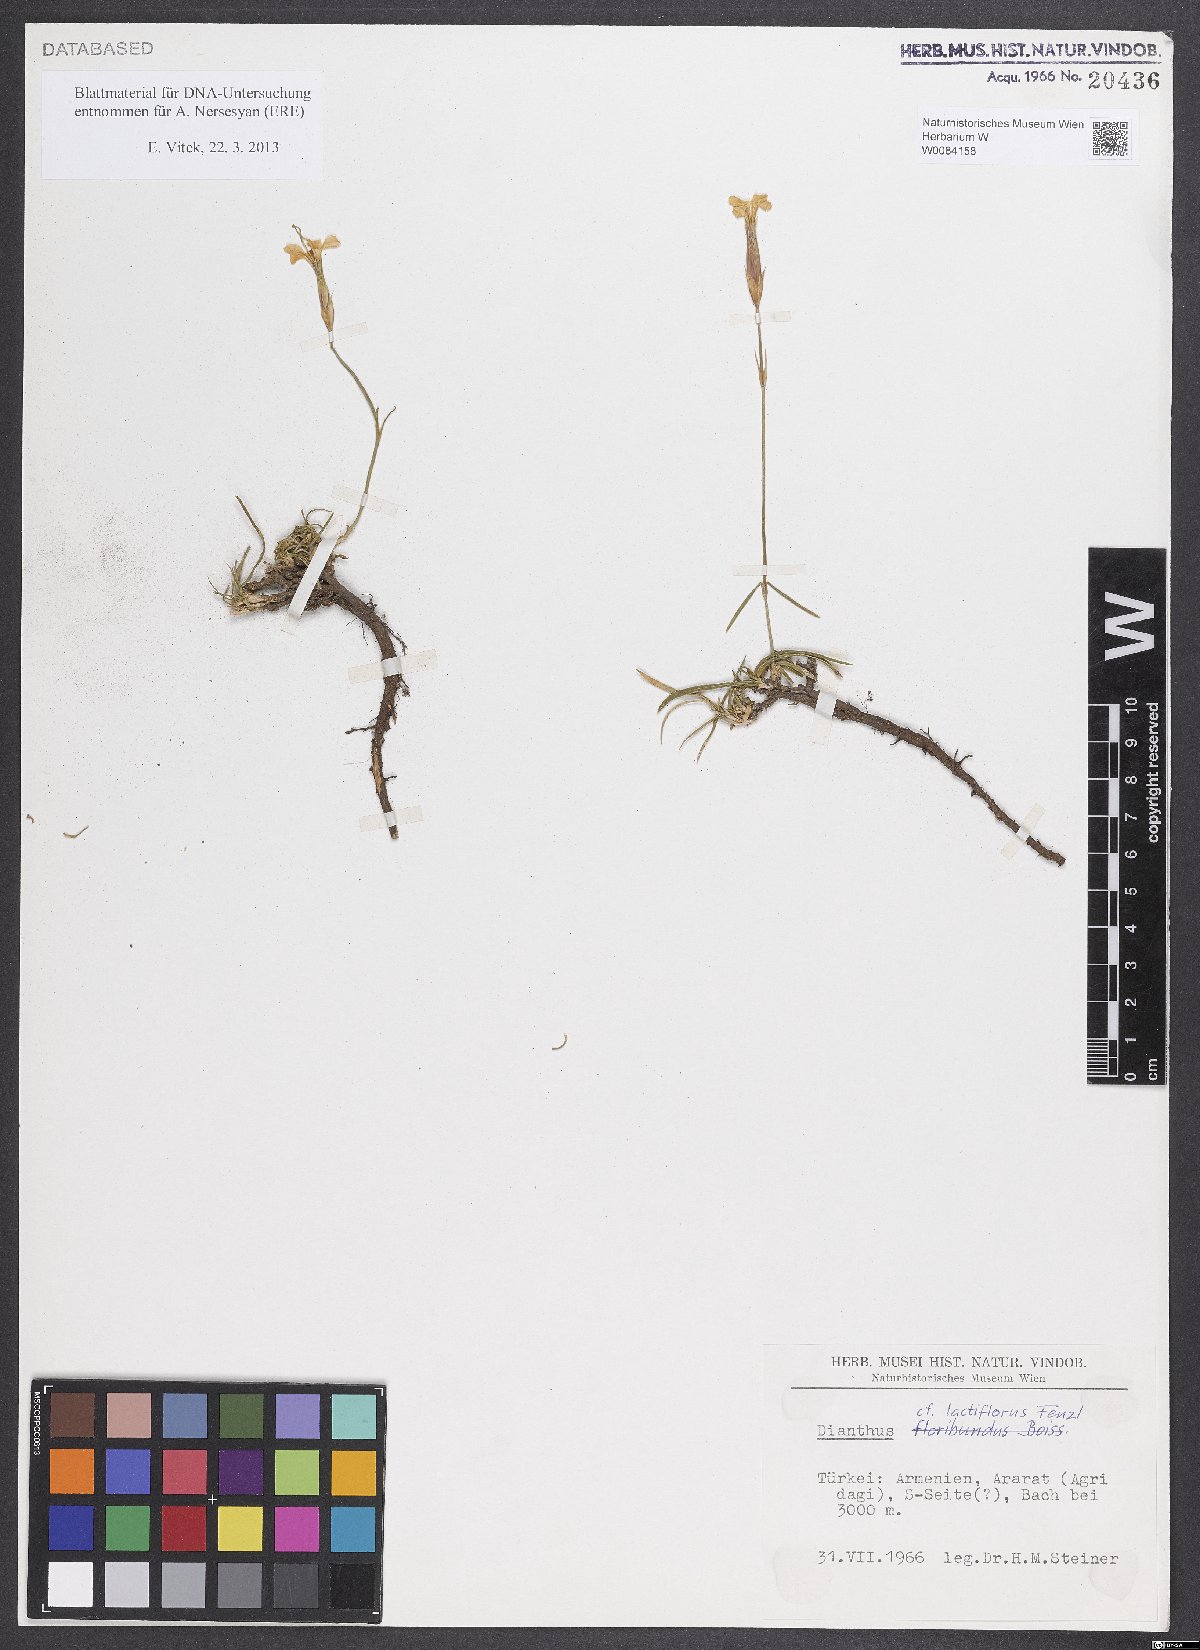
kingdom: Plantae
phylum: Tracheophyta
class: Magnoliopsida
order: Caryophyllales
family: Caryophyllaceae
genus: Dianthus
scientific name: Dianthus lactiflorus
